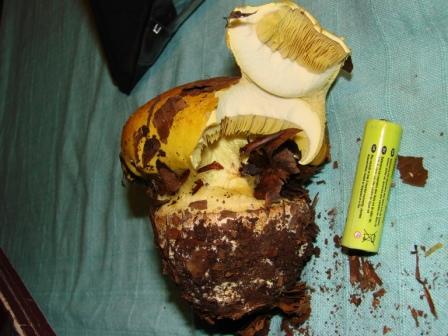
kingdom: Fungi
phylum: Basidiomycota
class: Agaricomycetes
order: Agaricales
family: Cortinariaceae
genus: Calonarius
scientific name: Calonarius elegantissimus
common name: orangegylden slørhat
